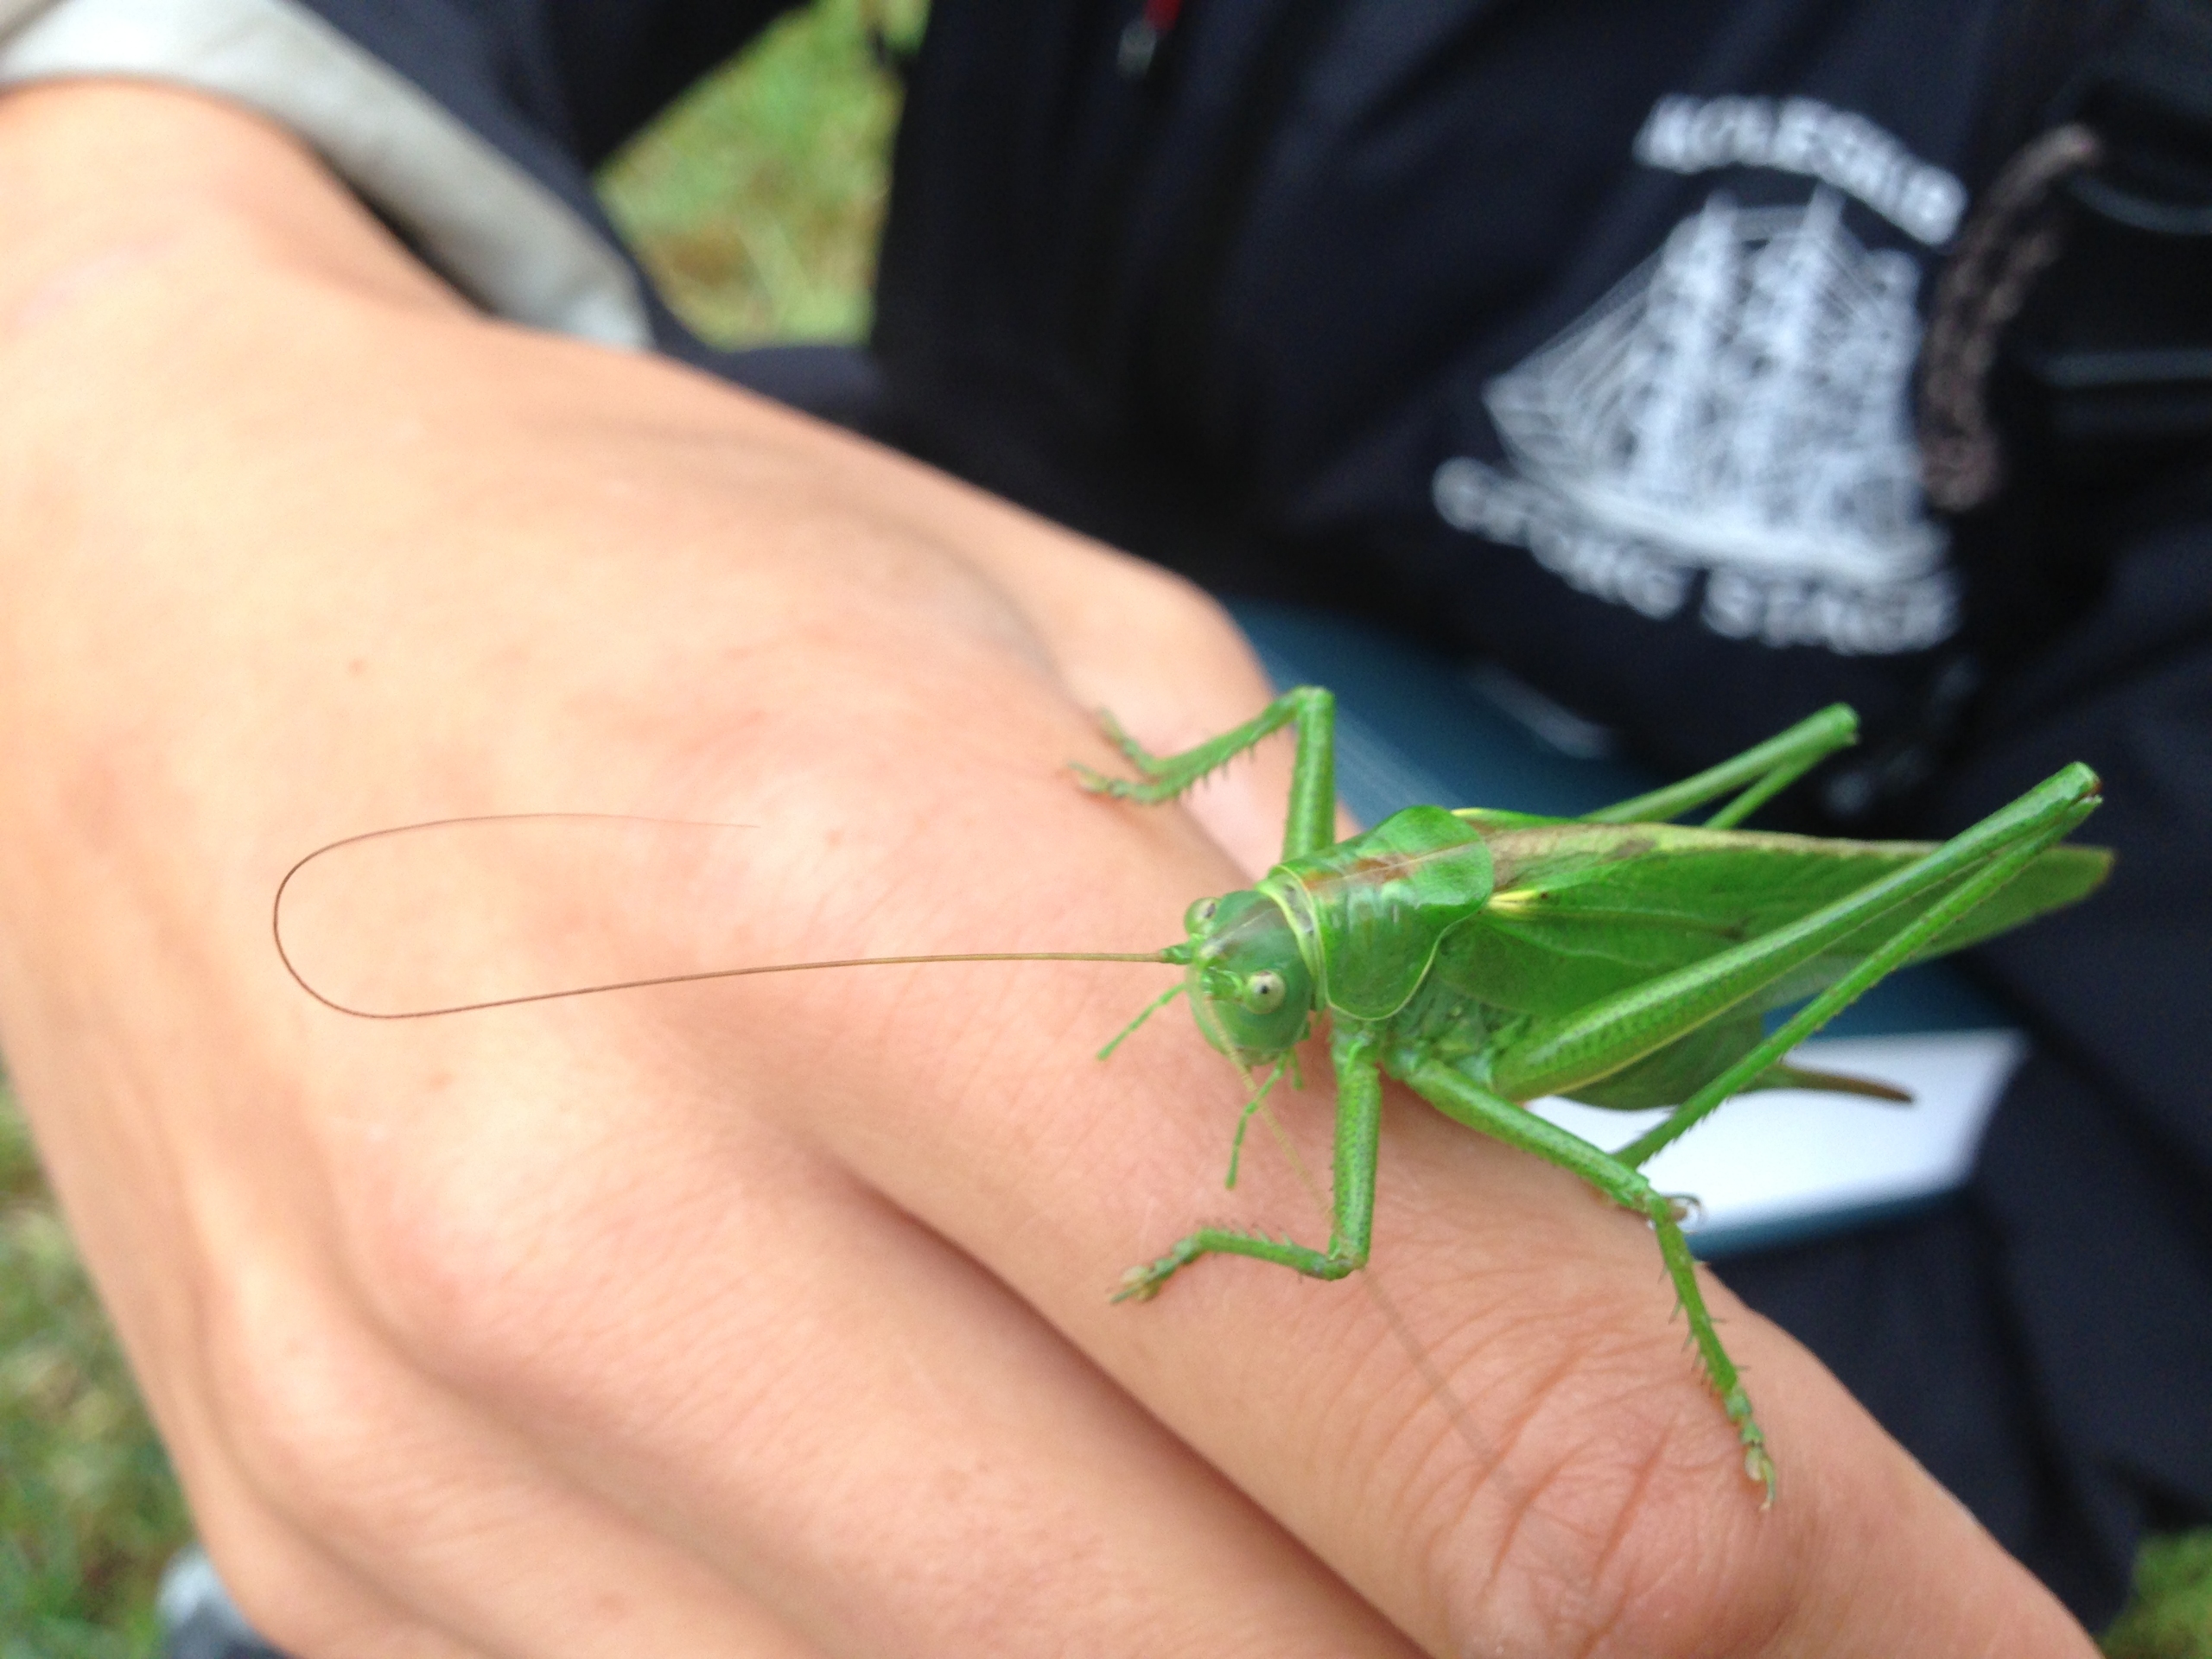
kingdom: Animalia
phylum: Arthropoda
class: Insecta
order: Orthoptera
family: Tettigoniidae
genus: Tettigonia
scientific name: Tettigonia viridissima
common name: Stor grøn løvgræshoppe
